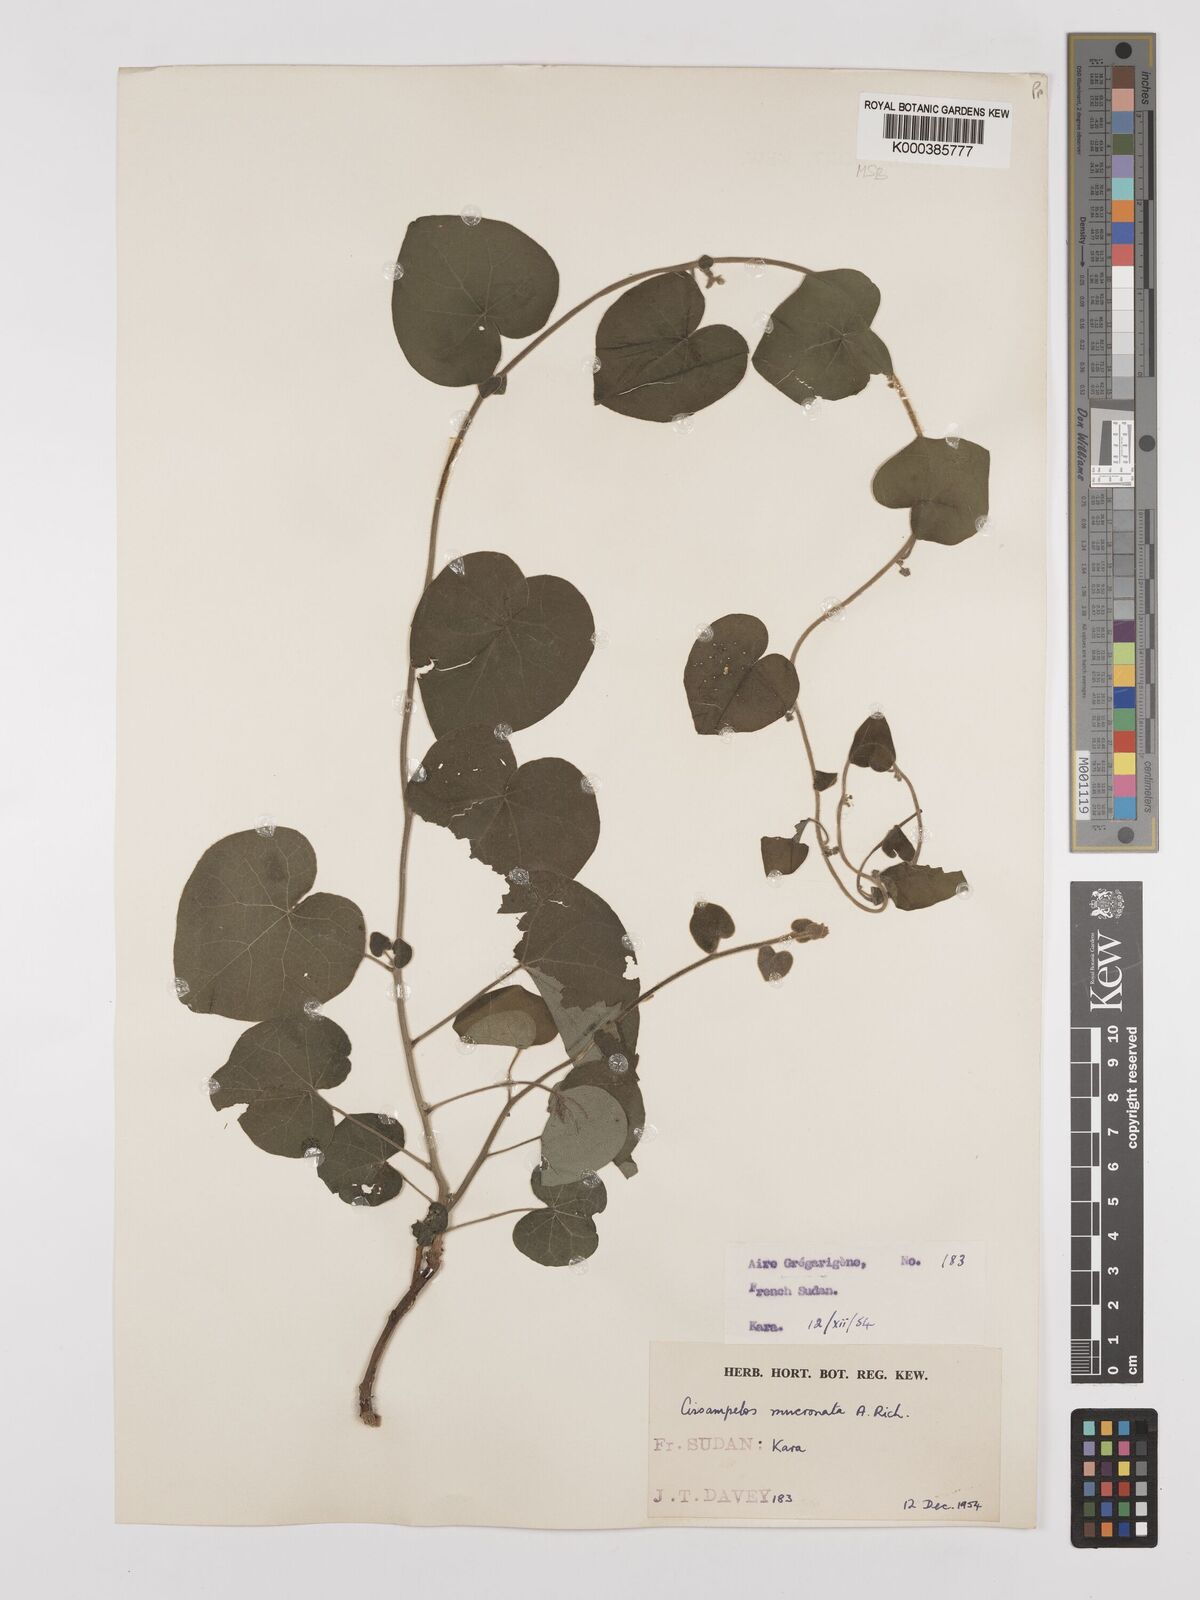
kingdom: Plantae
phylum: Tracheophyta
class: Magnoliopsida
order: Ranunculales
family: Menispermaceae
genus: Cissampelos
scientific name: Cissampelos mucronata
